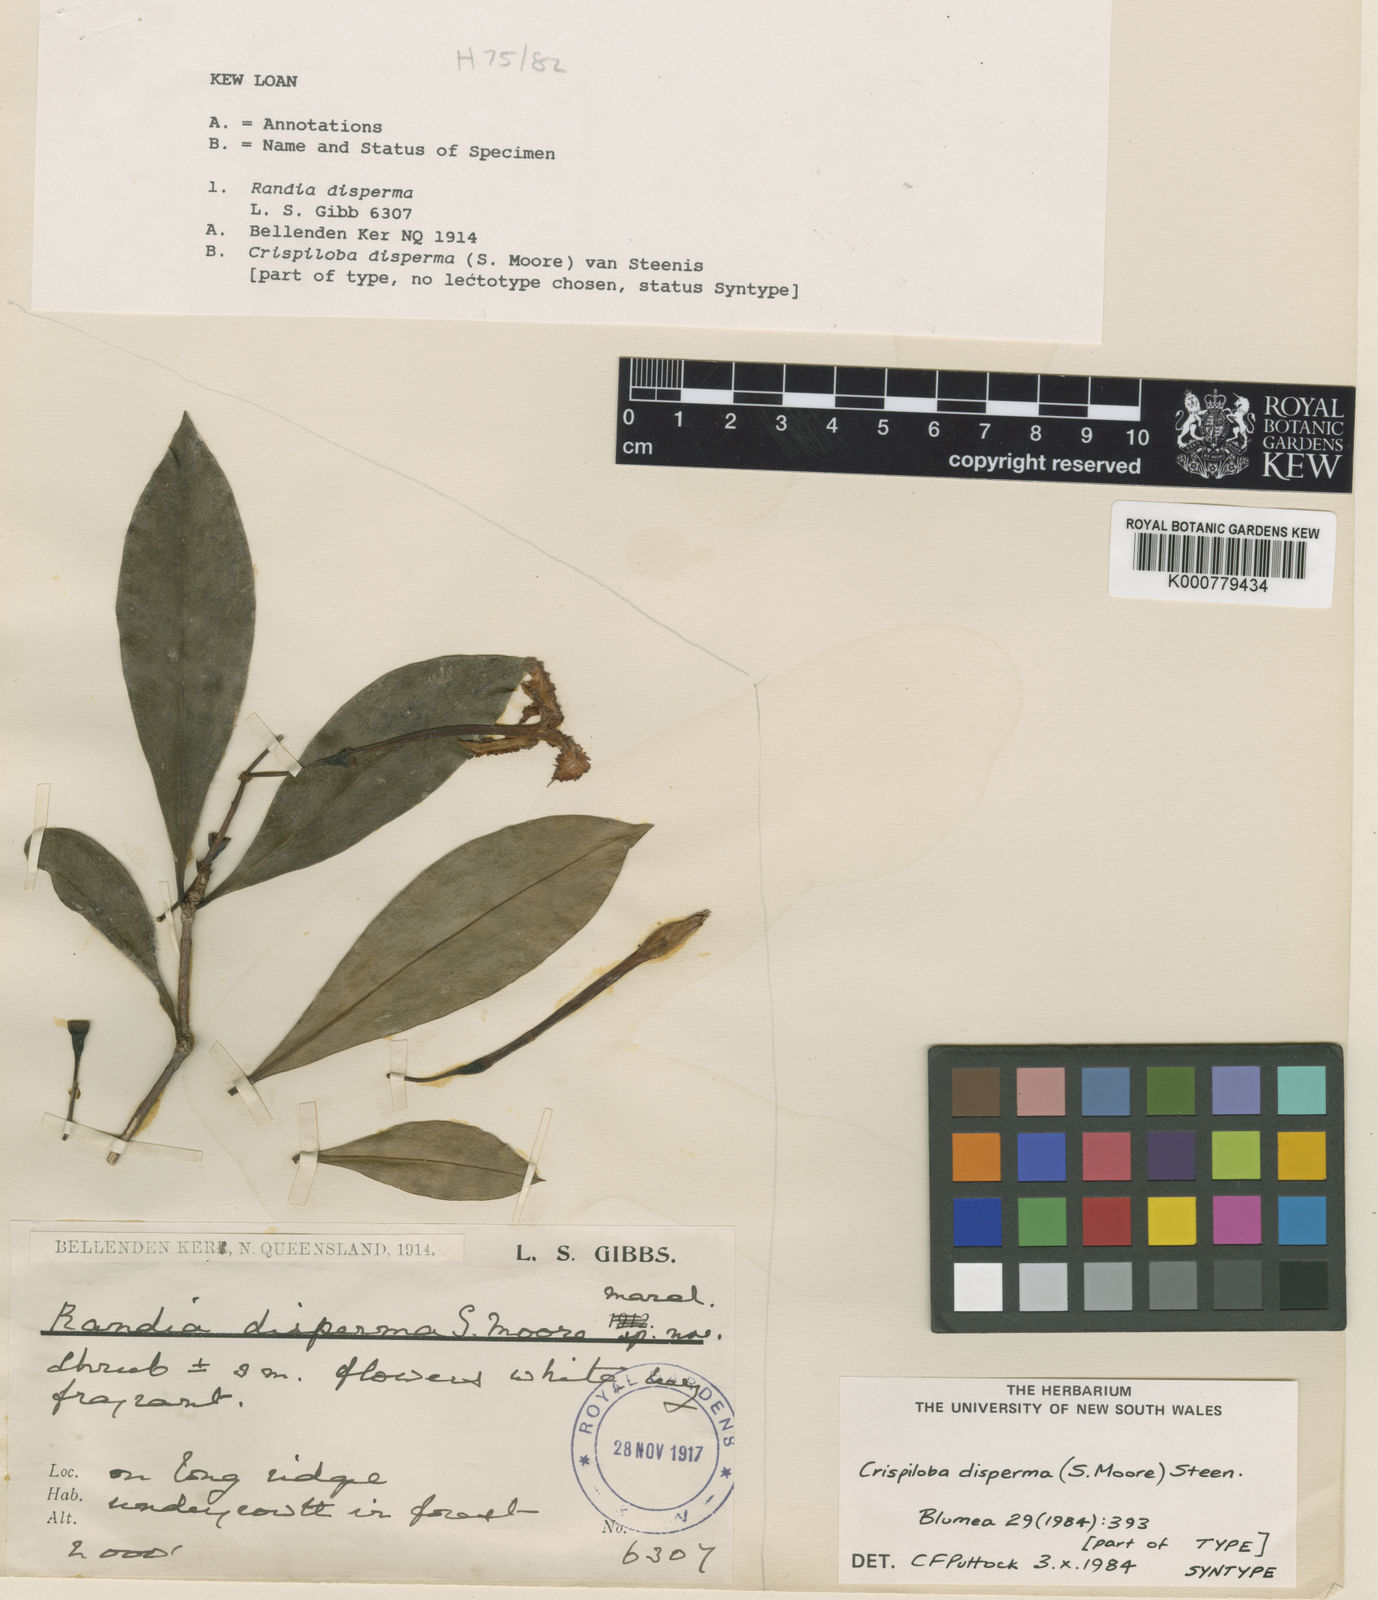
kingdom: Plantae
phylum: Tracheophyta
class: Magnoliopsida
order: Asterales
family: Alseuosmiaceae
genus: Crispiloba
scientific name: Crispiloba disperma
